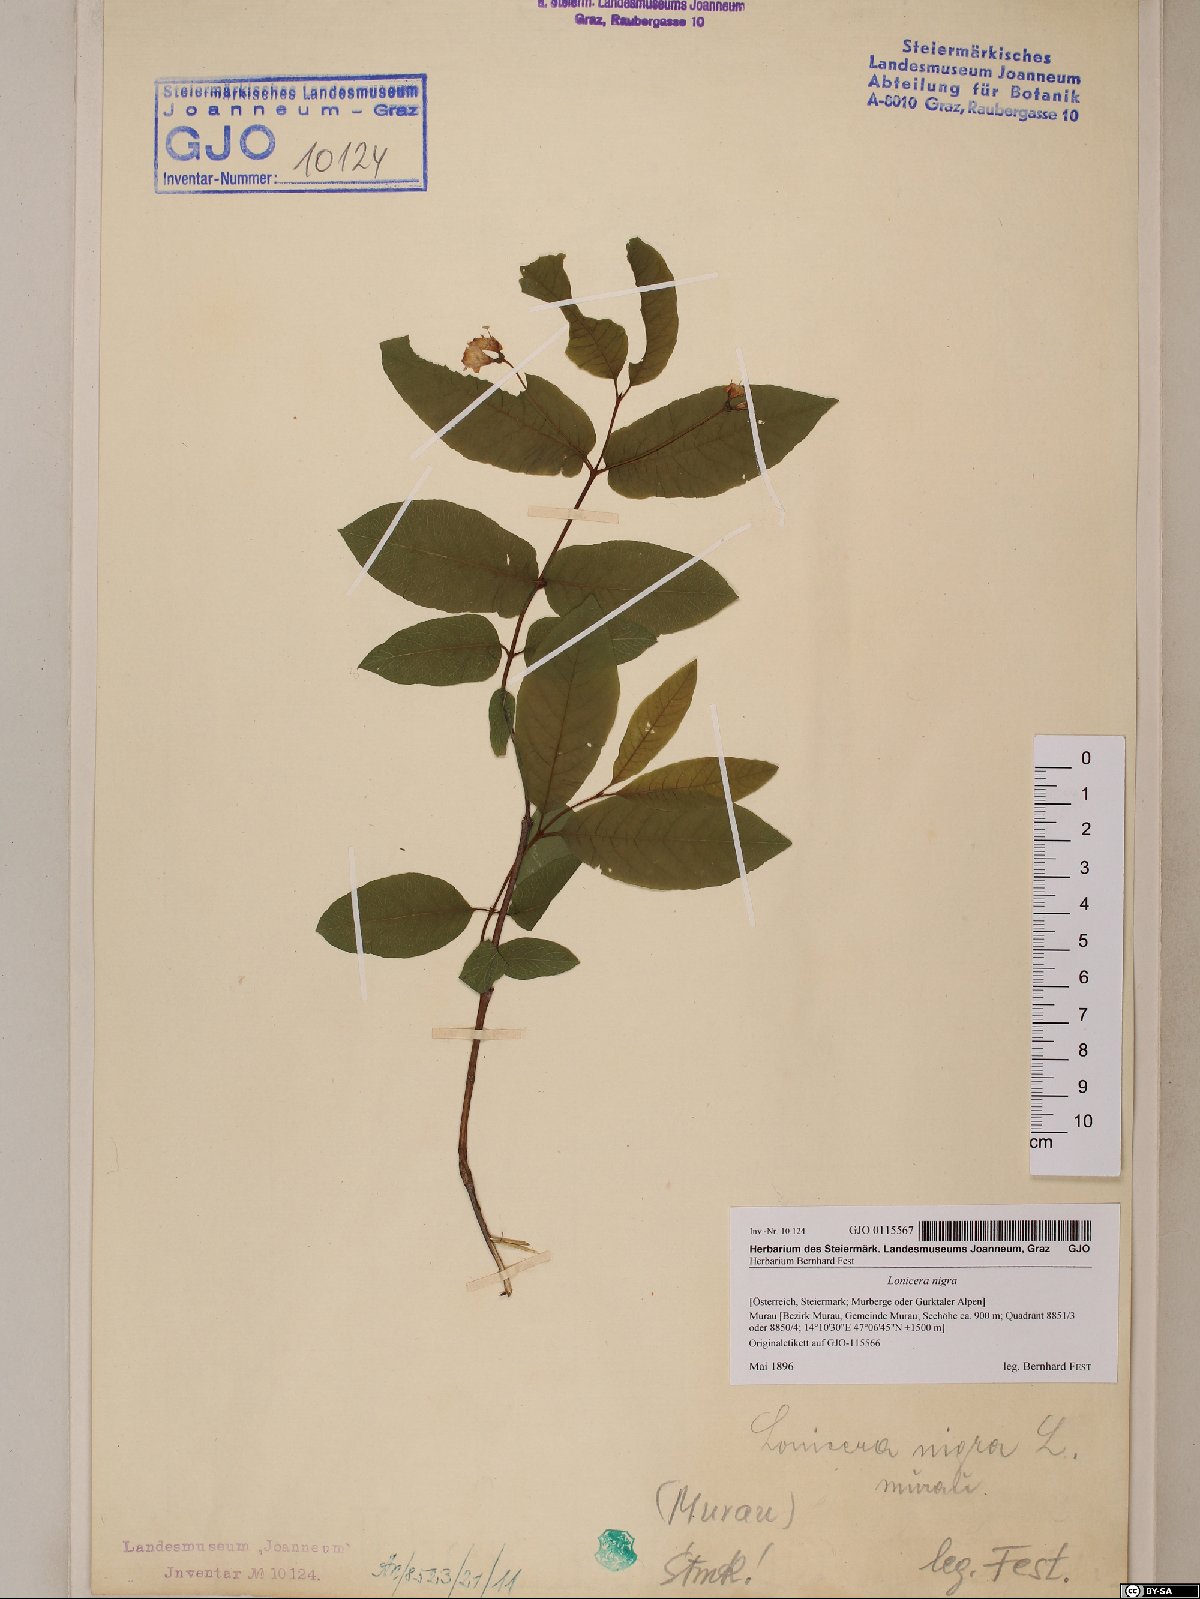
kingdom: Plantae
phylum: Tracheophyta
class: Magnoliopsida
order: Dipsacales
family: Caprifoliaceae
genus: Lonicera
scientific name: Lonicera nigra
